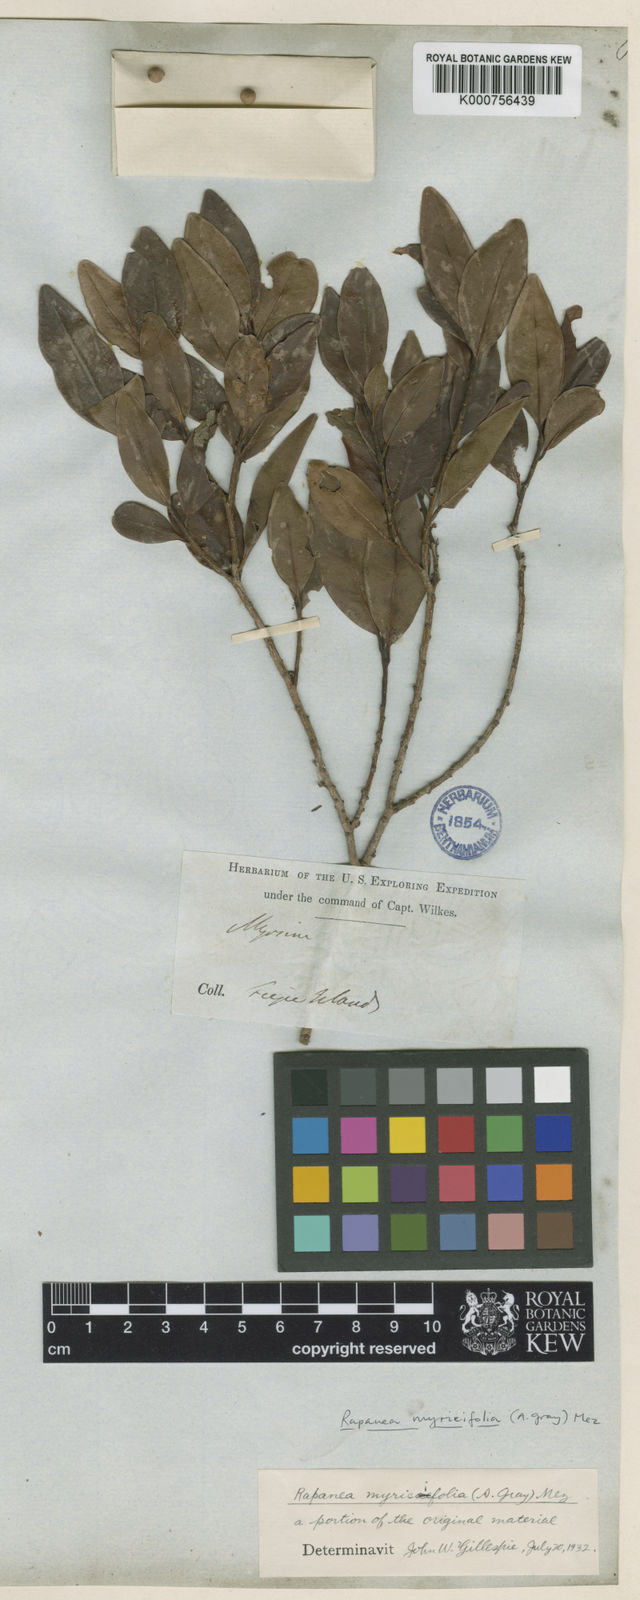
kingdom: Plantae
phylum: Tracheophyta
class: Magnoliopsida
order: Ericales
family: Primulaceae
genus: Myrsine
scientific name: Myrsine myricifolia
